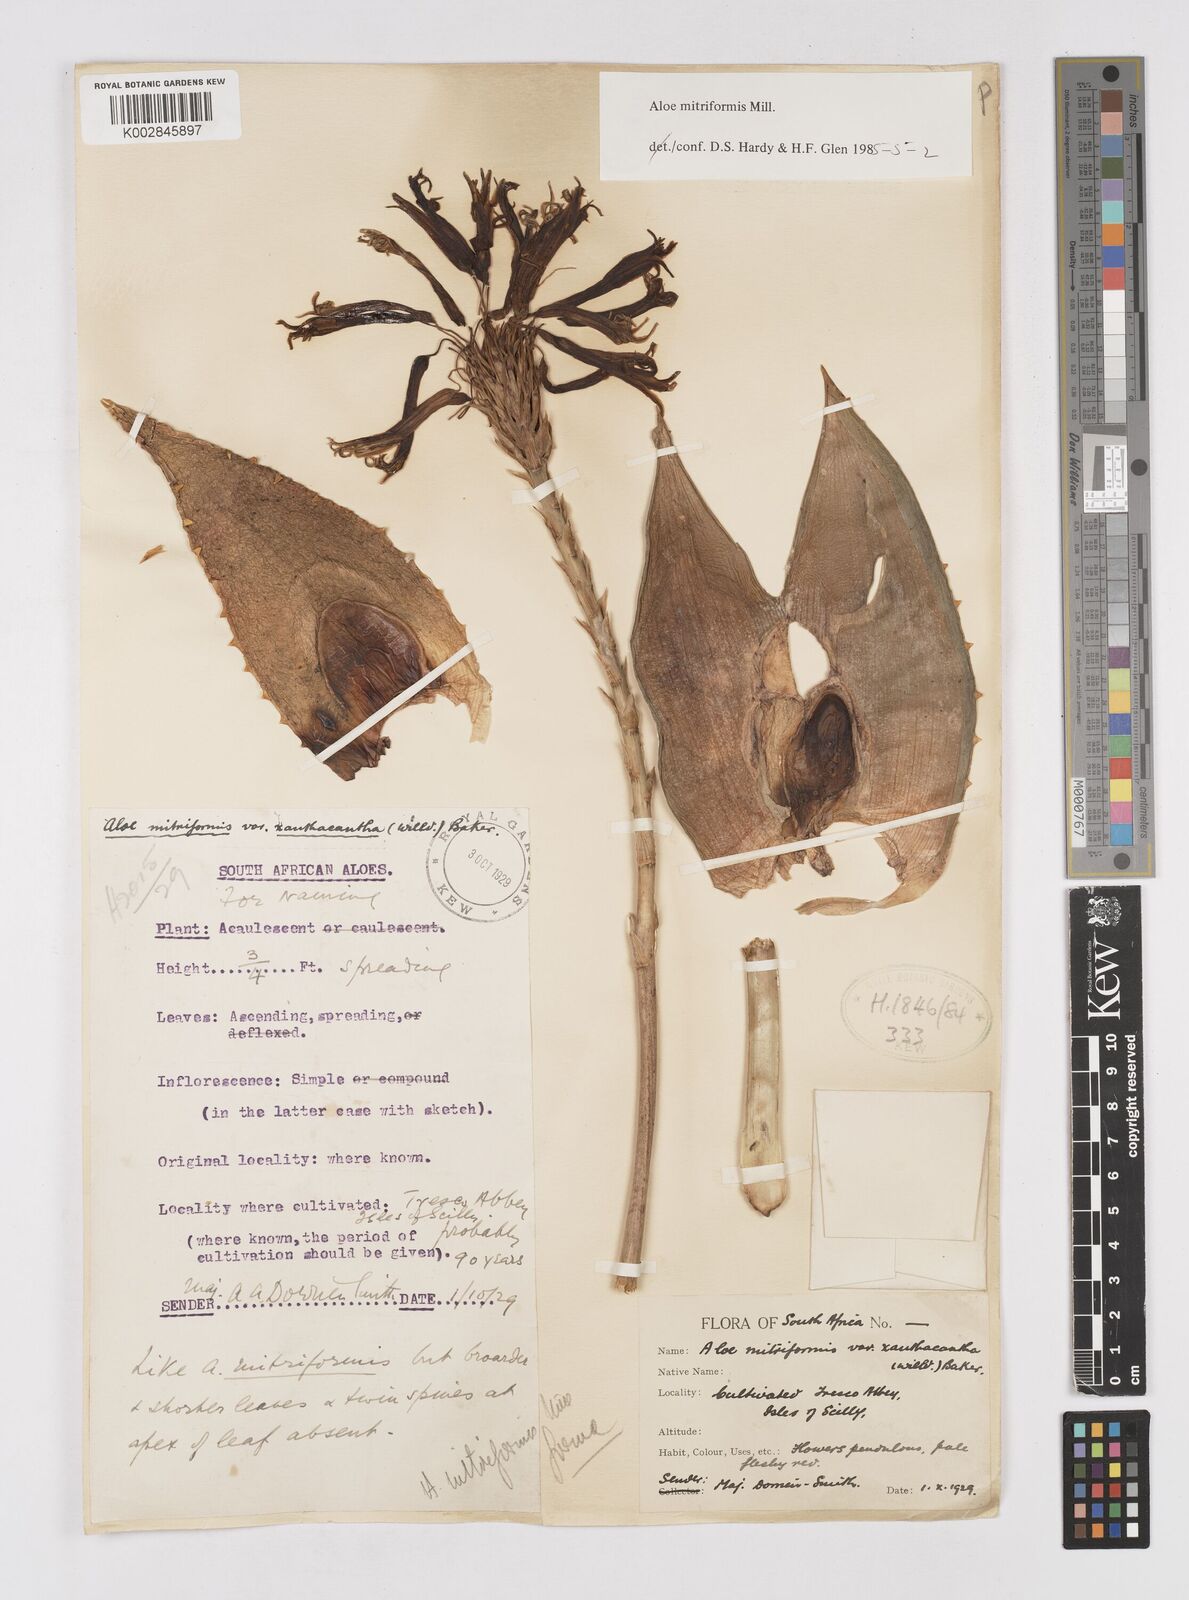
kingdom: Plantae
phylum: Tracheophyta
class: Liliopsida
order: Asparagales
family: Asphodelaceae
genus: Aloe
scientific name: Aloe perfoliata
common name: Mitra aloe
